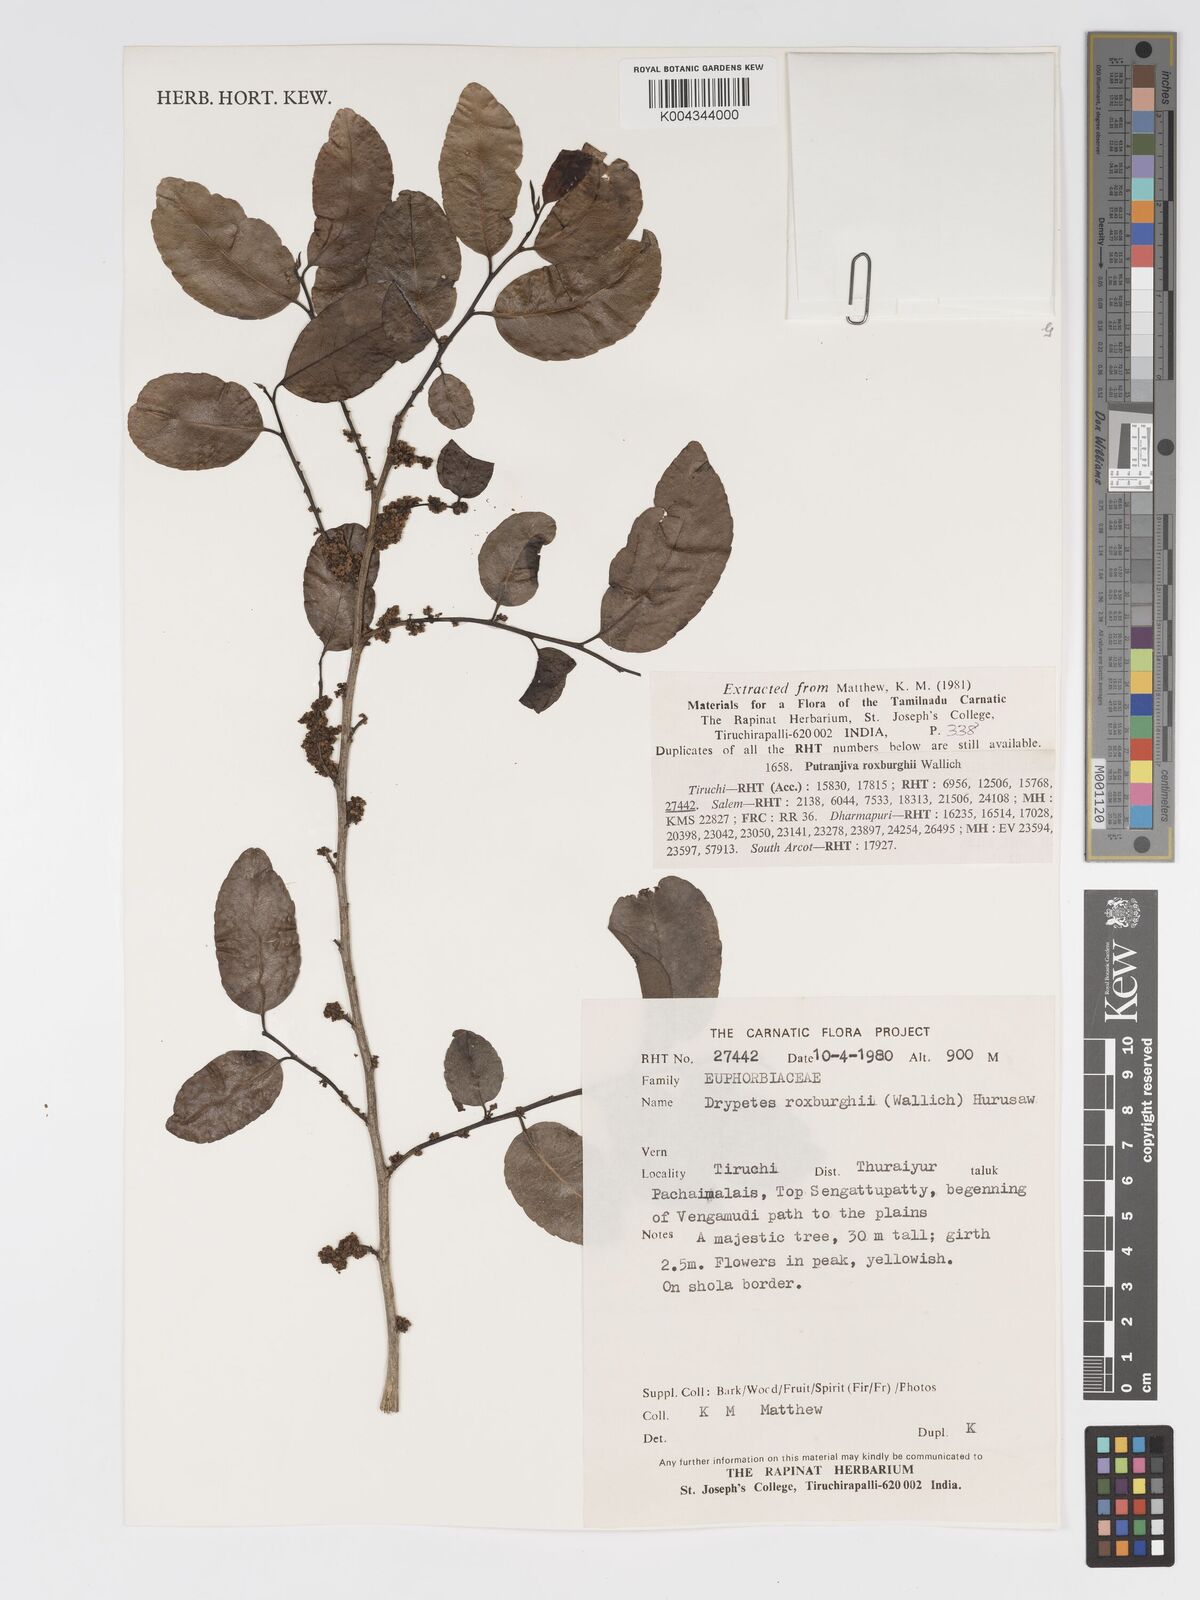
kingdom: Plantae
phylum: Tracheophyta
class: Magnoliopsida
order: Malpighiales
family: Putranjivaceae
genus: Putranjiva
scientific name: Putranjiva roxburghii
